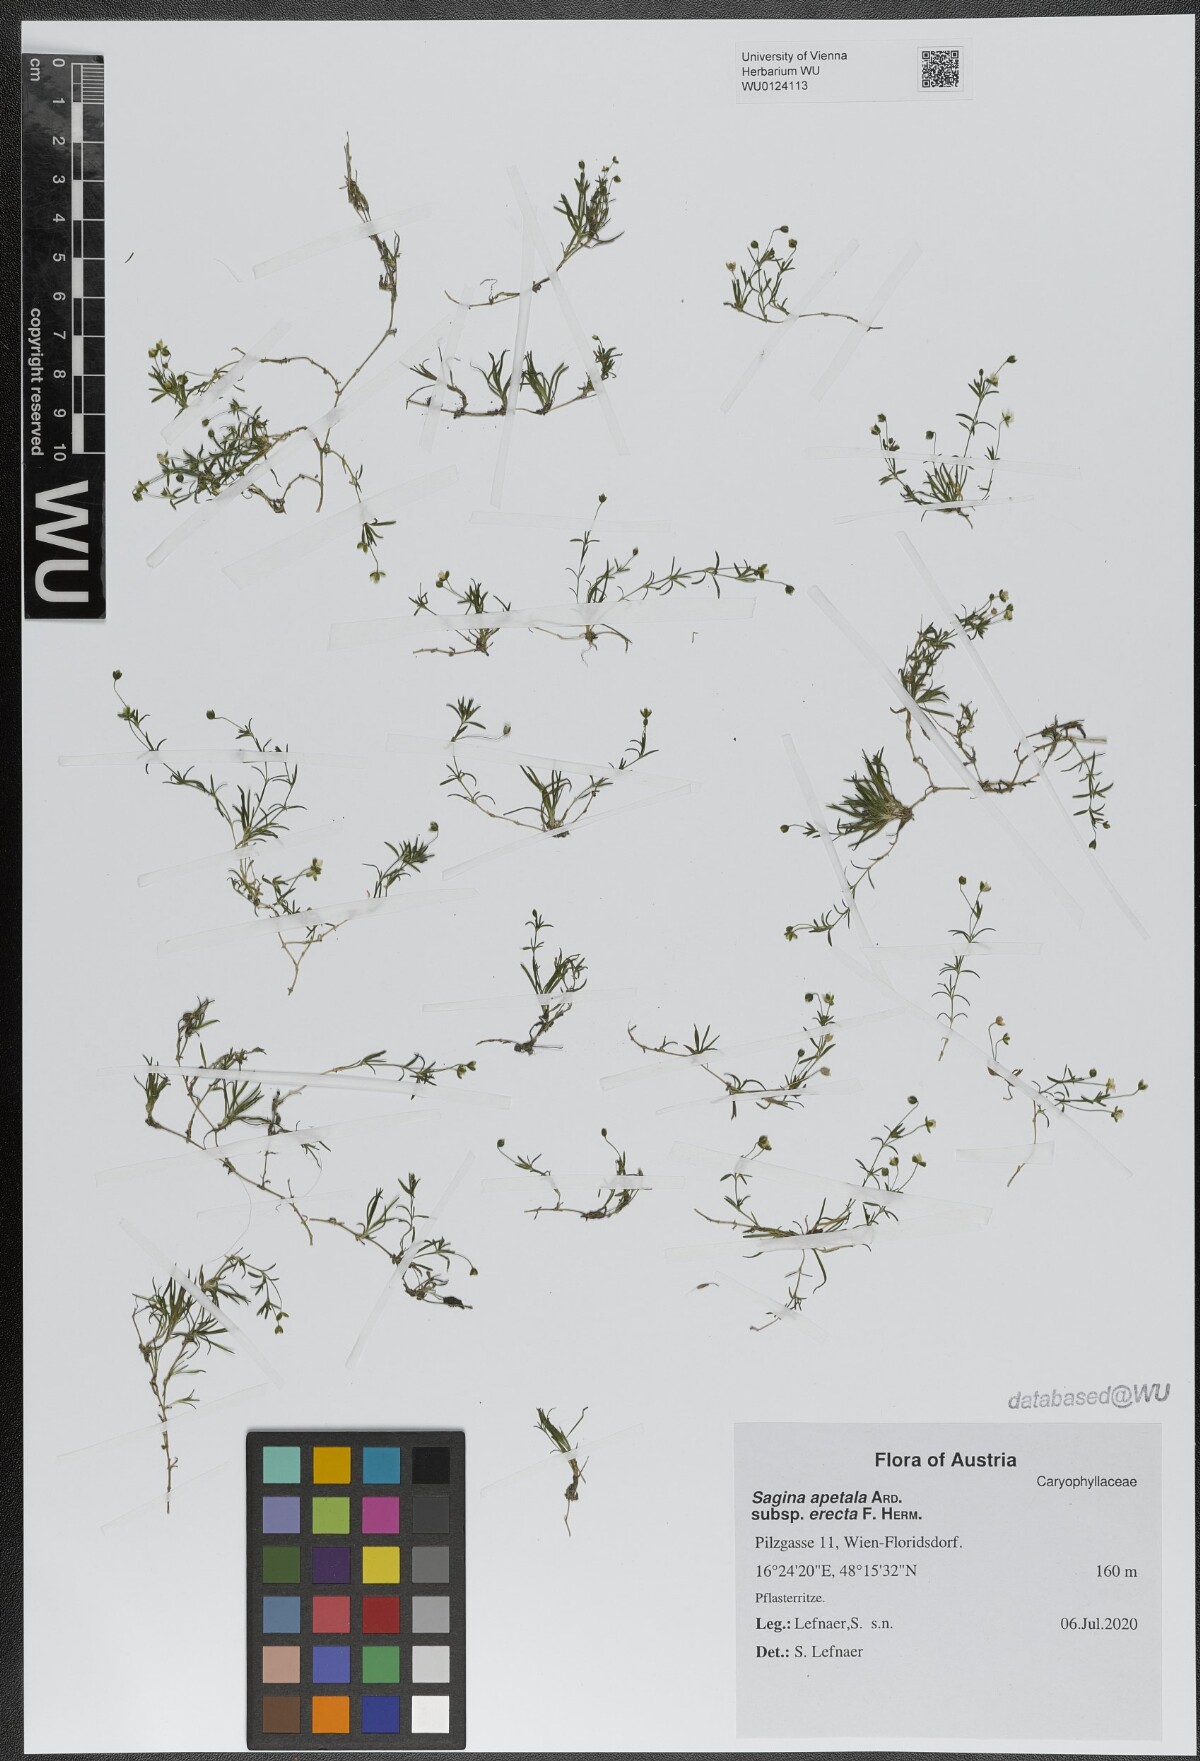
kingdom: Plantae
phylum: Tracheophyta
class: Magnoliopsida
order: Caryophyllales
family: Caryophyllaceae
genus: Sagina
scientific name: Sagina micropetala
